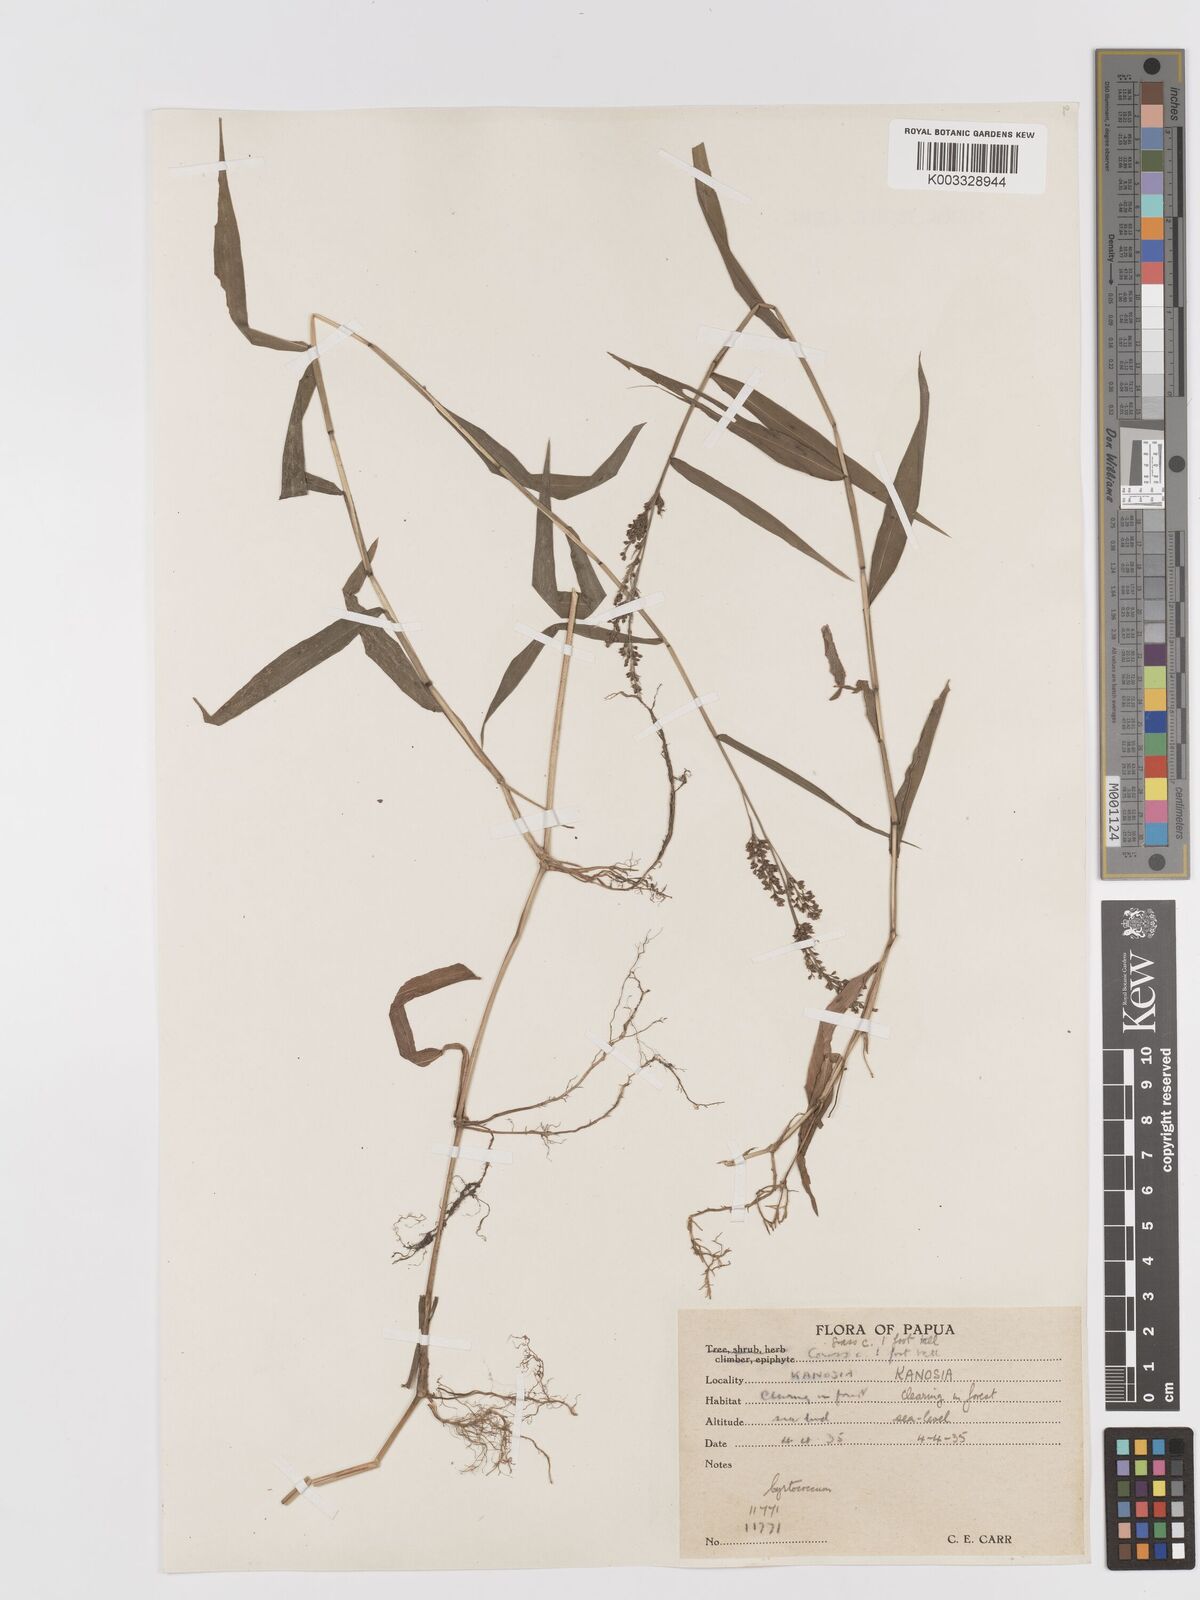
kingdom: Plantae
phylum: Tracheophyta
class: Liliopsida
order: Poales
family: Poaceae
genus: Cyrtococcum
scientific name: Cyrtococcum oxyphyllum
